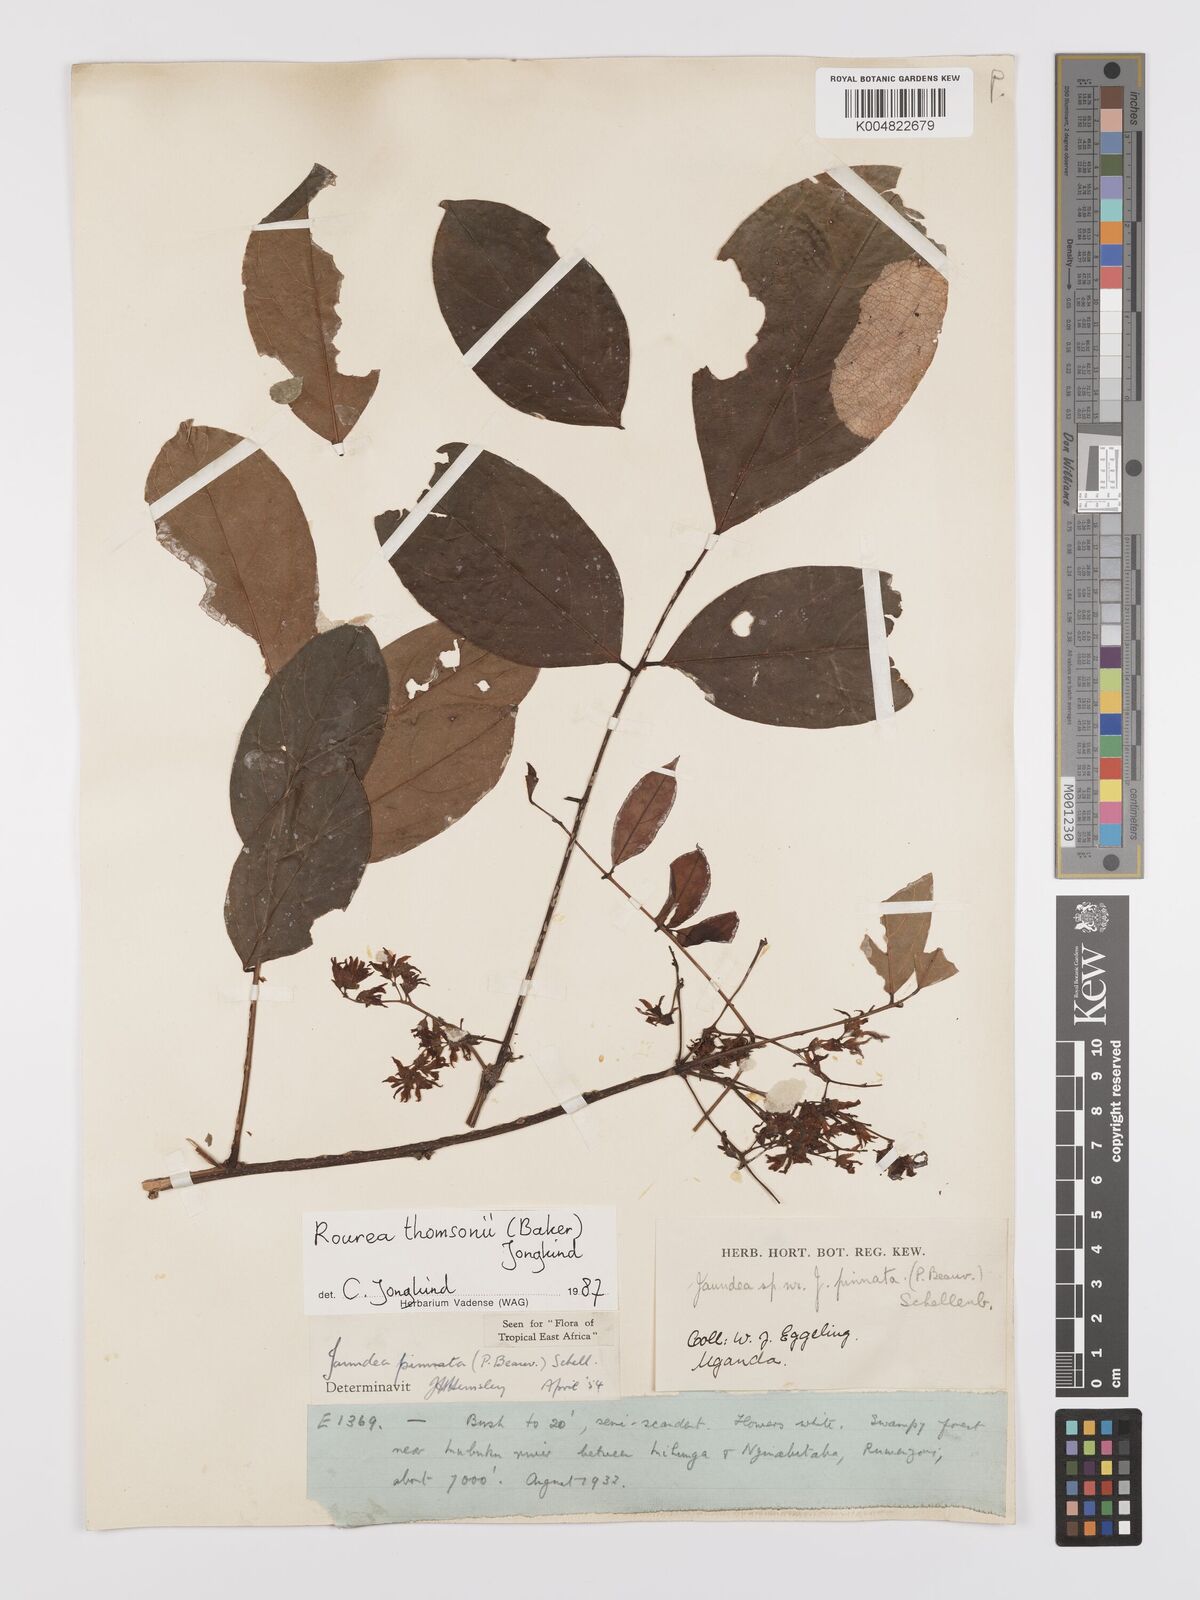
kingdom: Plantae
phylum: Tracheophyta
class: Magnoliopsida
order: Oxalidales
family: Connaraceae
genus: Rourea
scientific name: Rourea pinnata
